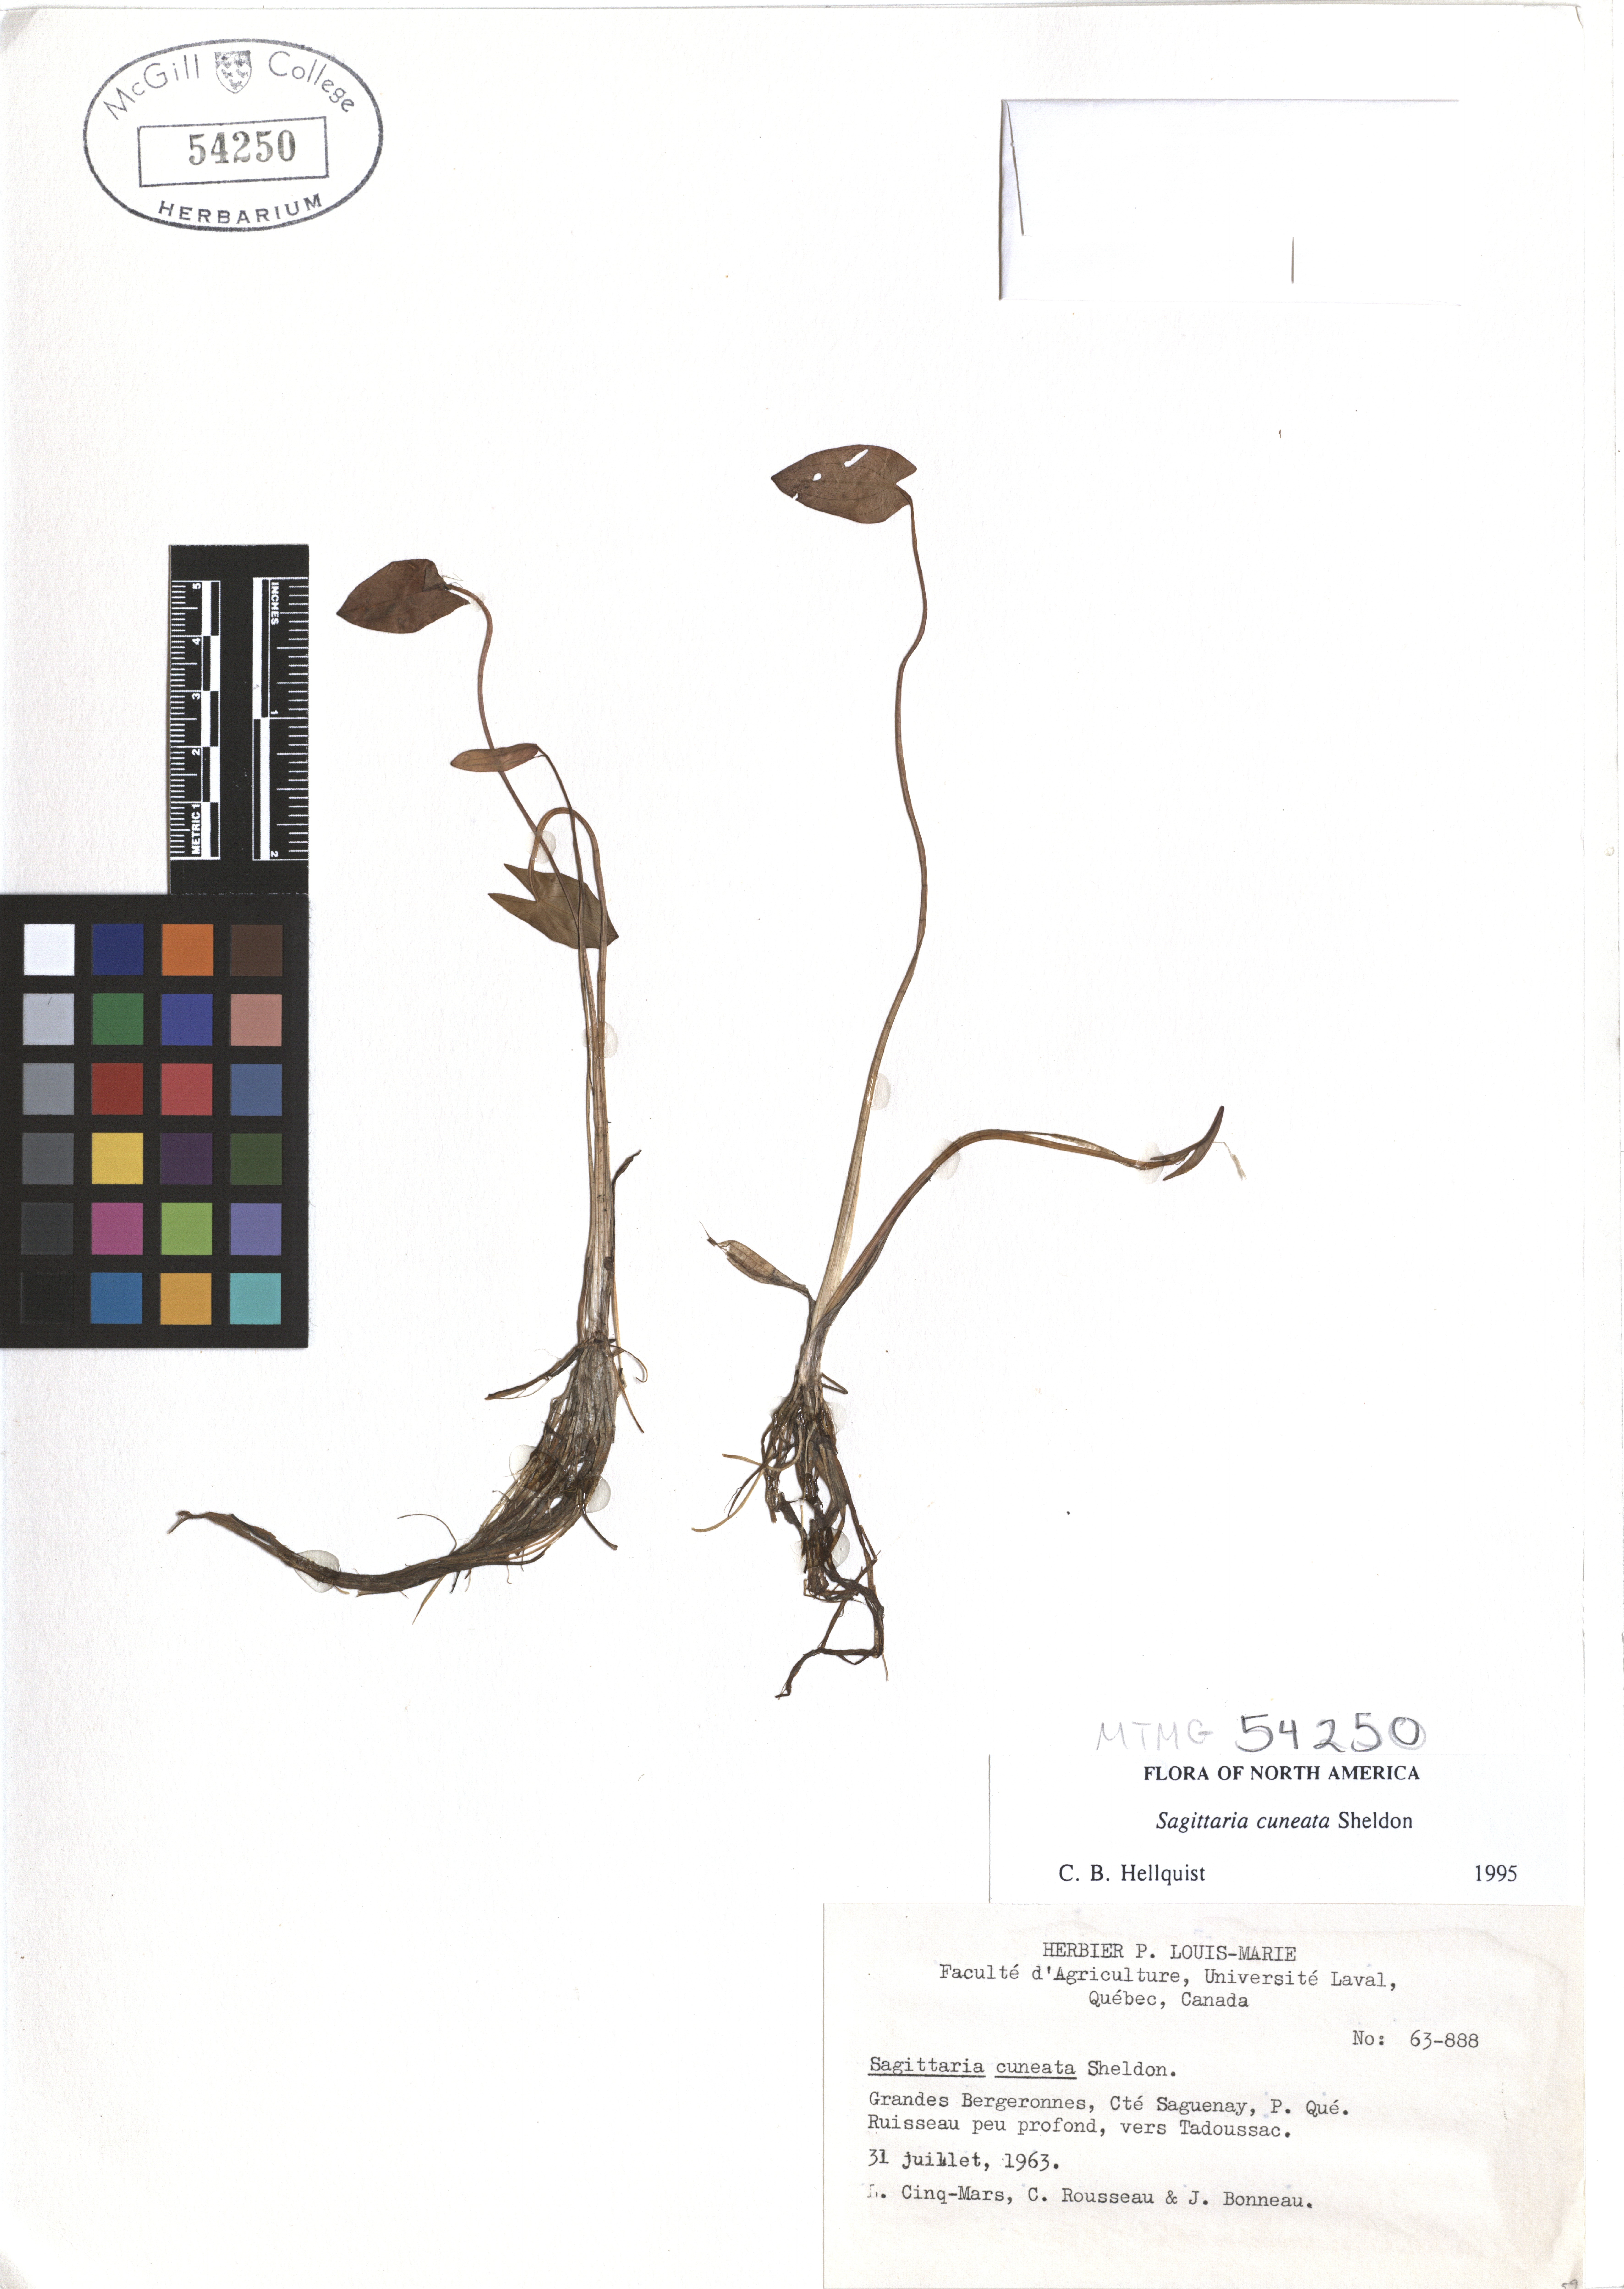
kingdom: Plantae
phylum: Tracheophyta
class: Liliopsida
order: Alismatales
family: Alismataceae
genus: Sagittaria
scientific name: Sagittaria cuneata
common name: Northern arrowhead
